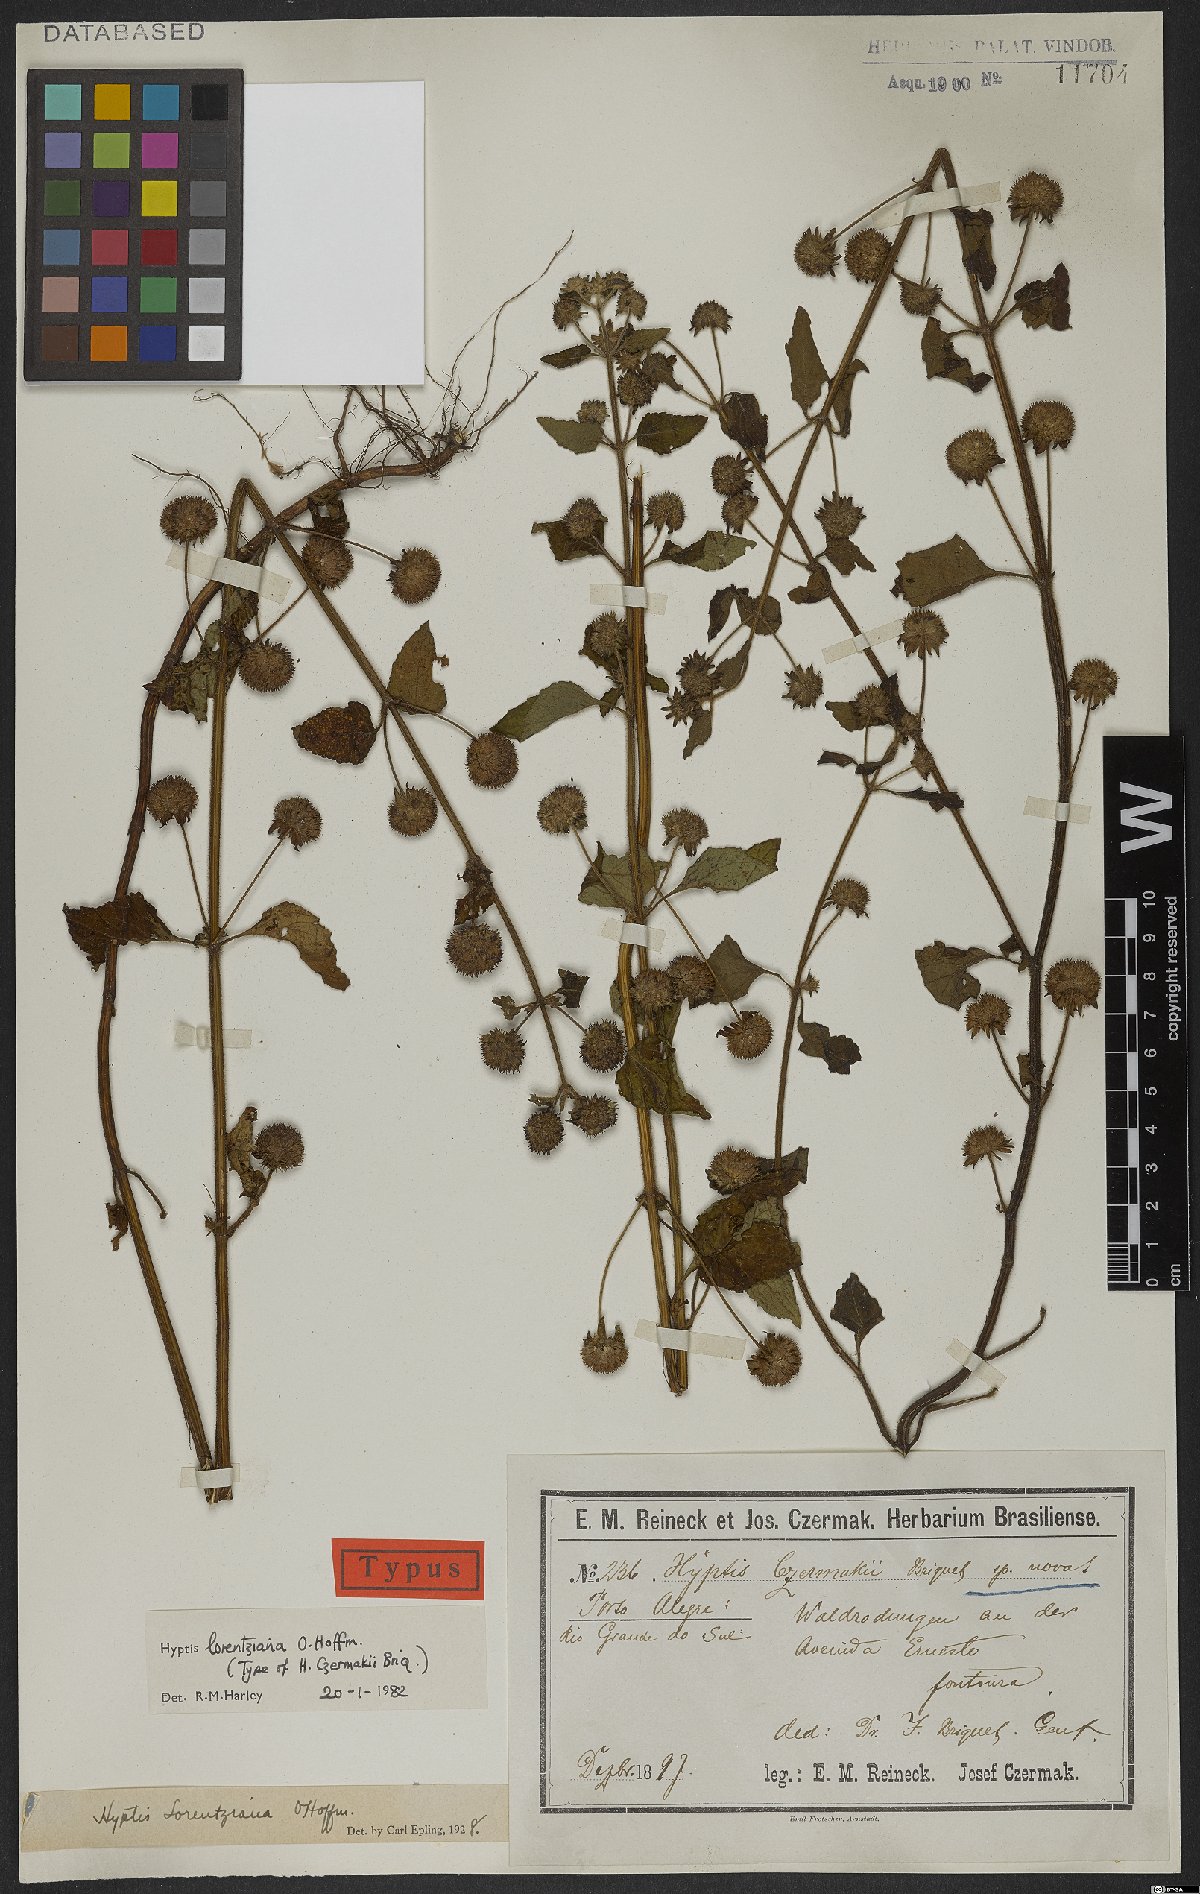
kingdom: Plantae
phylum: Tracheophyta
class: Magnoliopsida
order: Lamiales
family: Lamiaceae
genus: Hyptis
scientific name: Hyptis lorentziana
